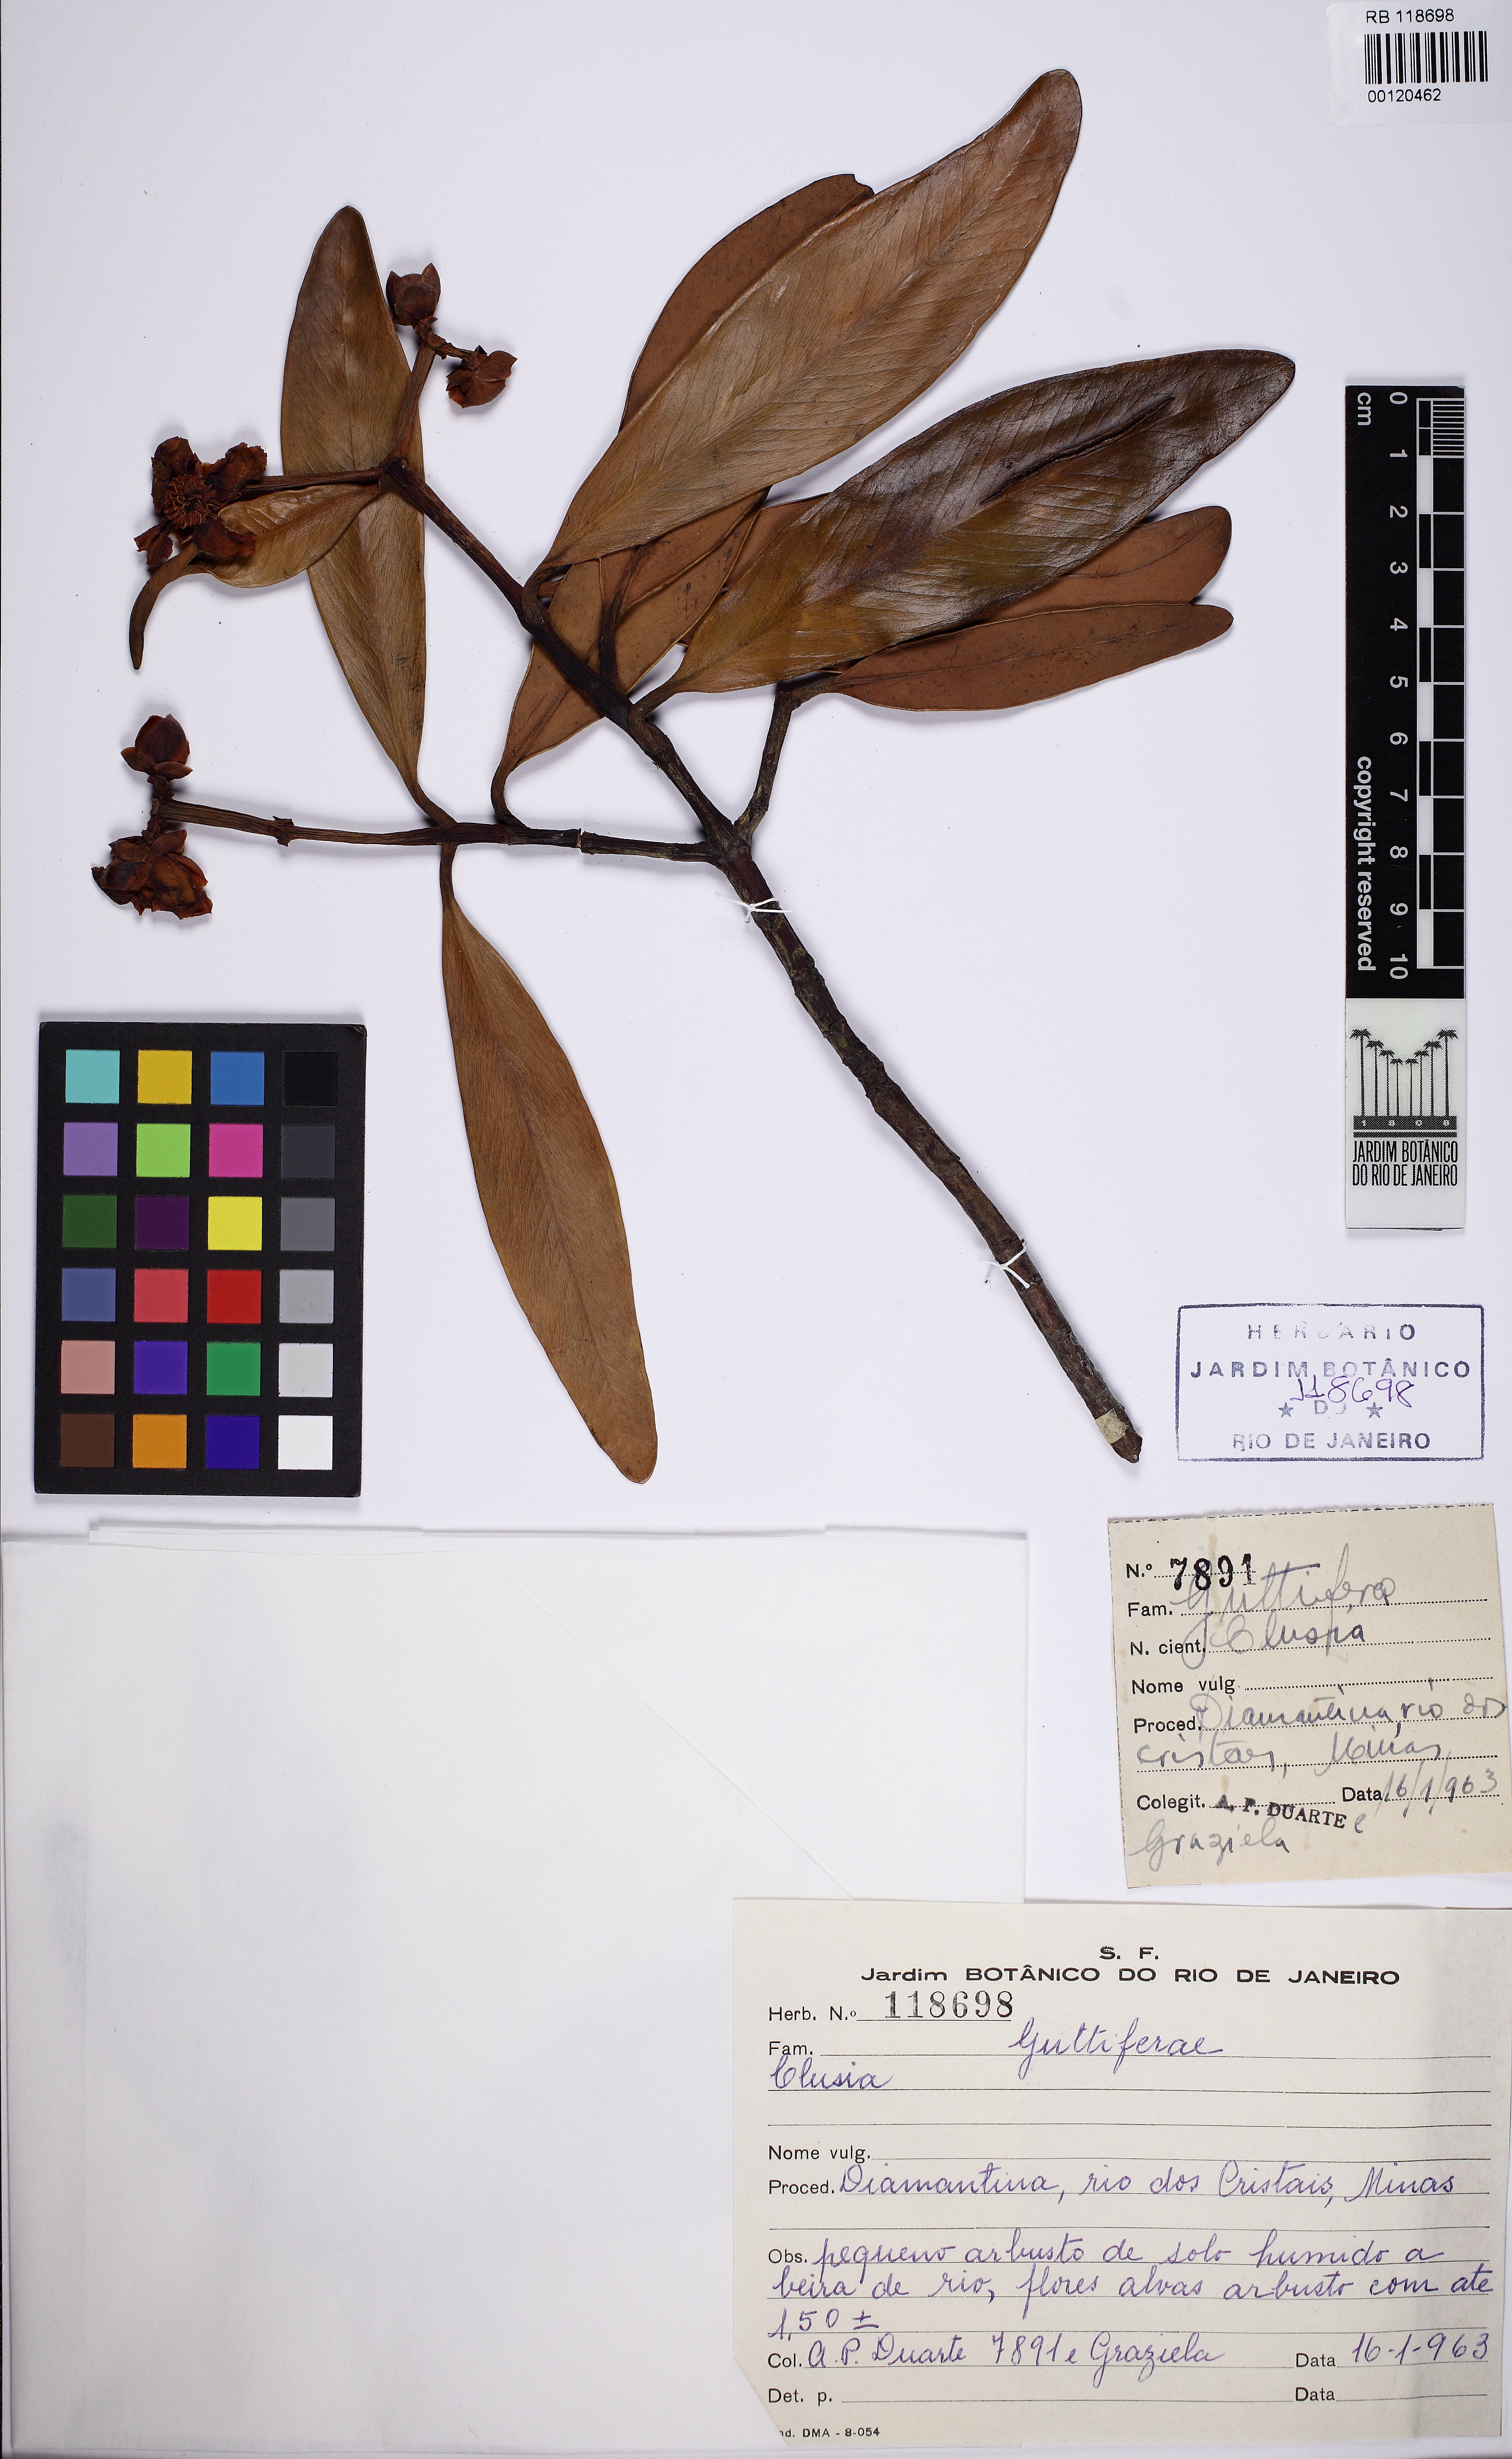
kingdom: Plantae
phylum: Tracheophyta
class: Magnoliopsida
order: Malpighiales
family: Clusiaceae
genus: Clusia
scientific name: Clusia riedeliana
